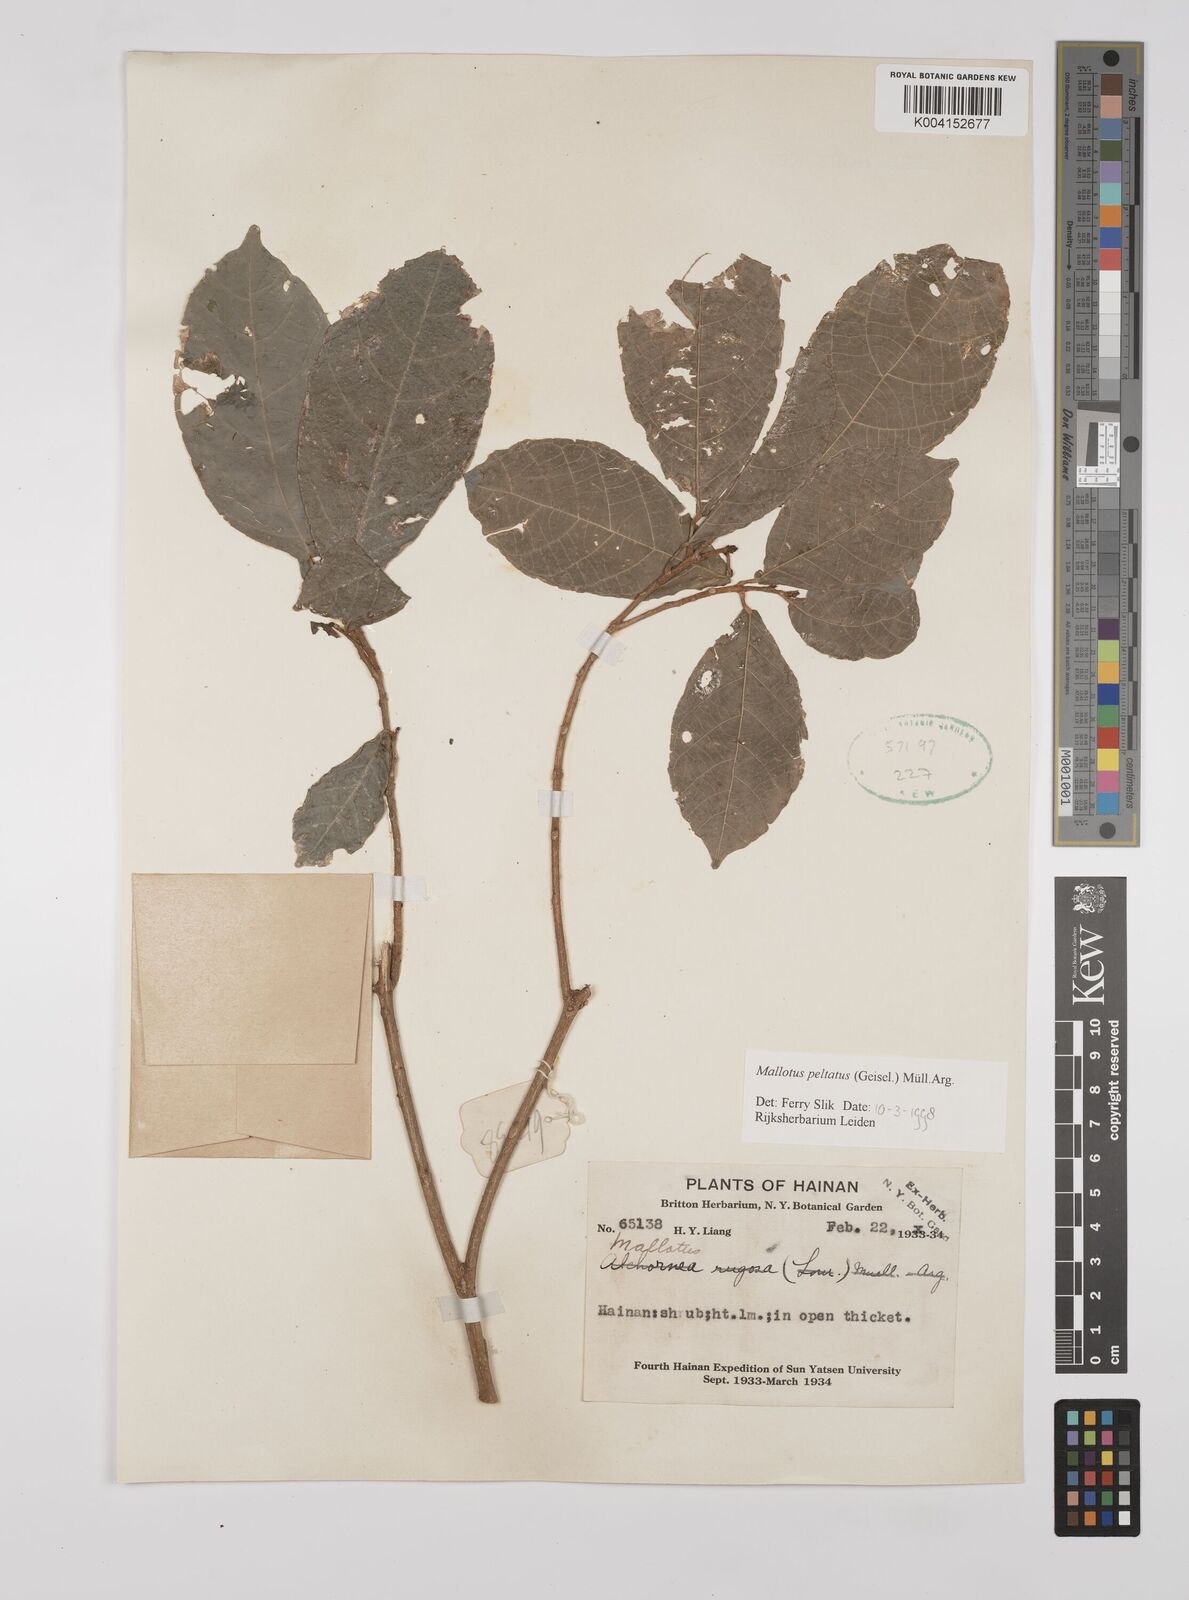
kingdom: Plantae
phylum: Tracheophyta
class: Magnoliopsida
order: Malpighiales
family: Euphorbiaceae
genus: Mallotus
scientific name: Mallotus peltatus
